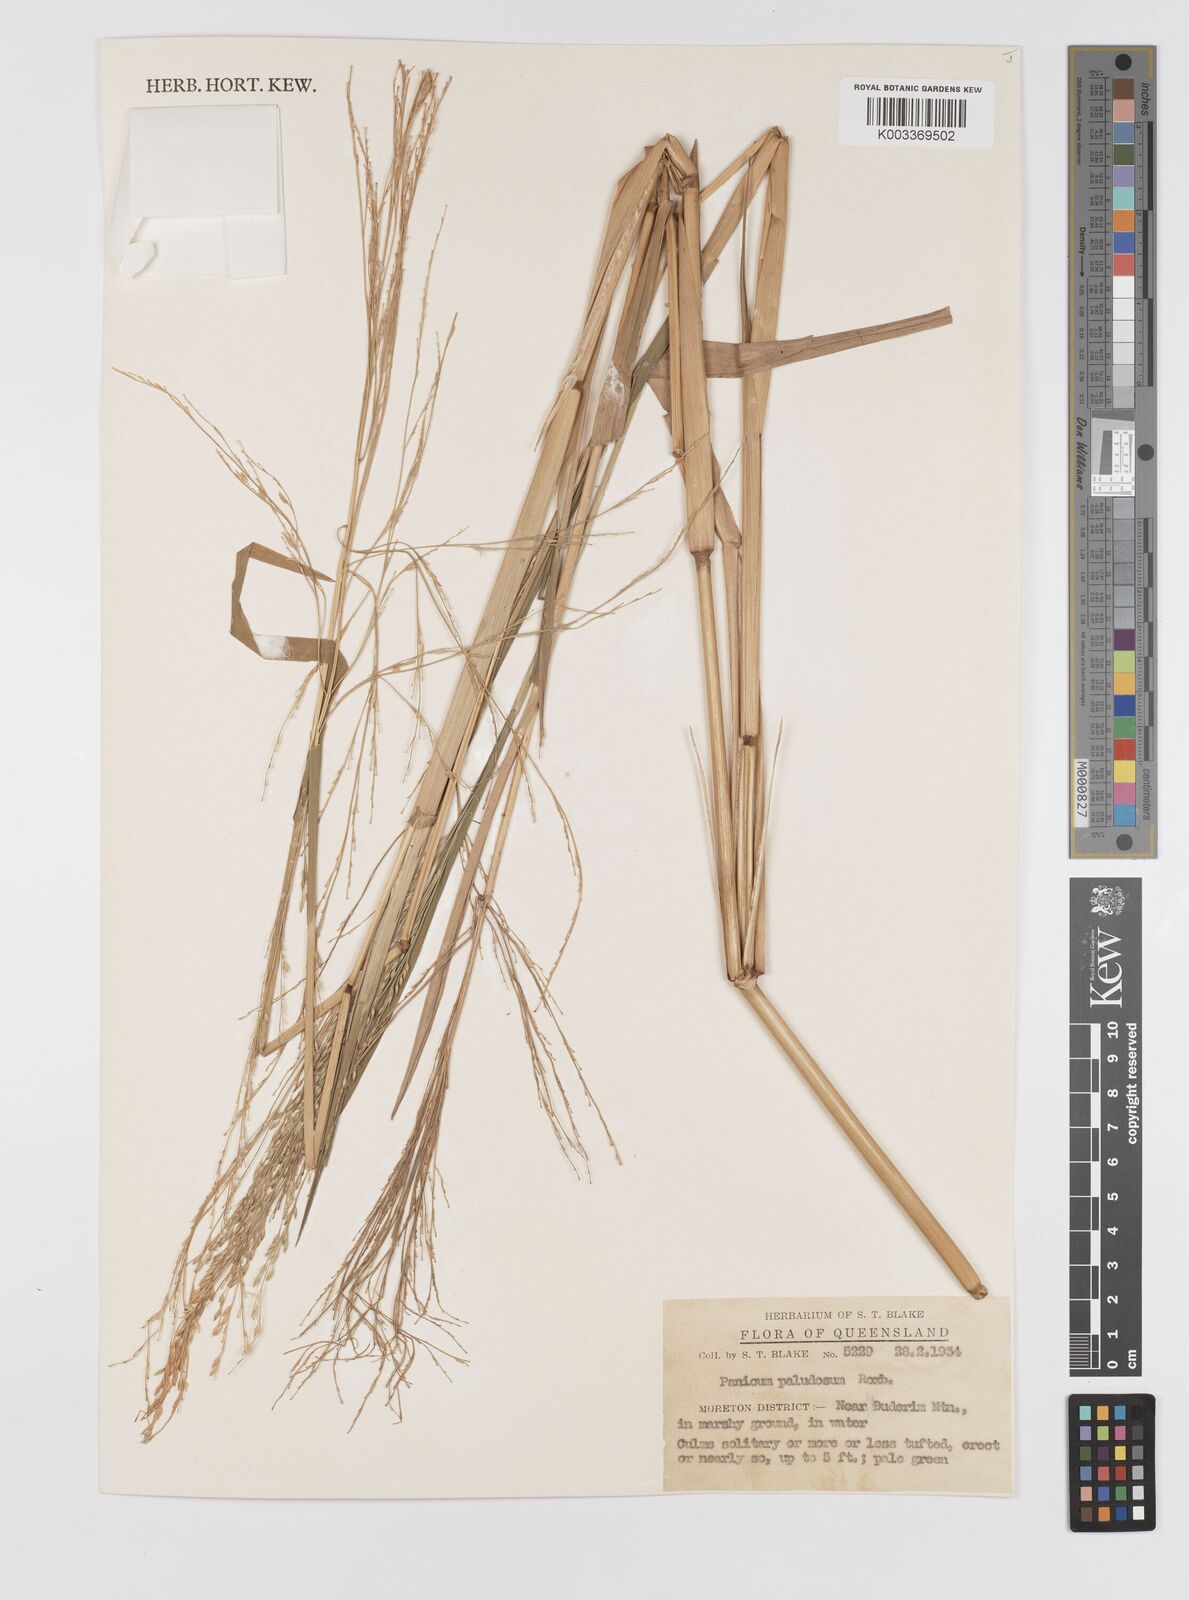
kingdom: Plantae
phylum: Tracheophyta
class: Liliopsida
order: Poales
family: Poaceae
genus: Louisiella
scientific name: Louisiella paludosa
